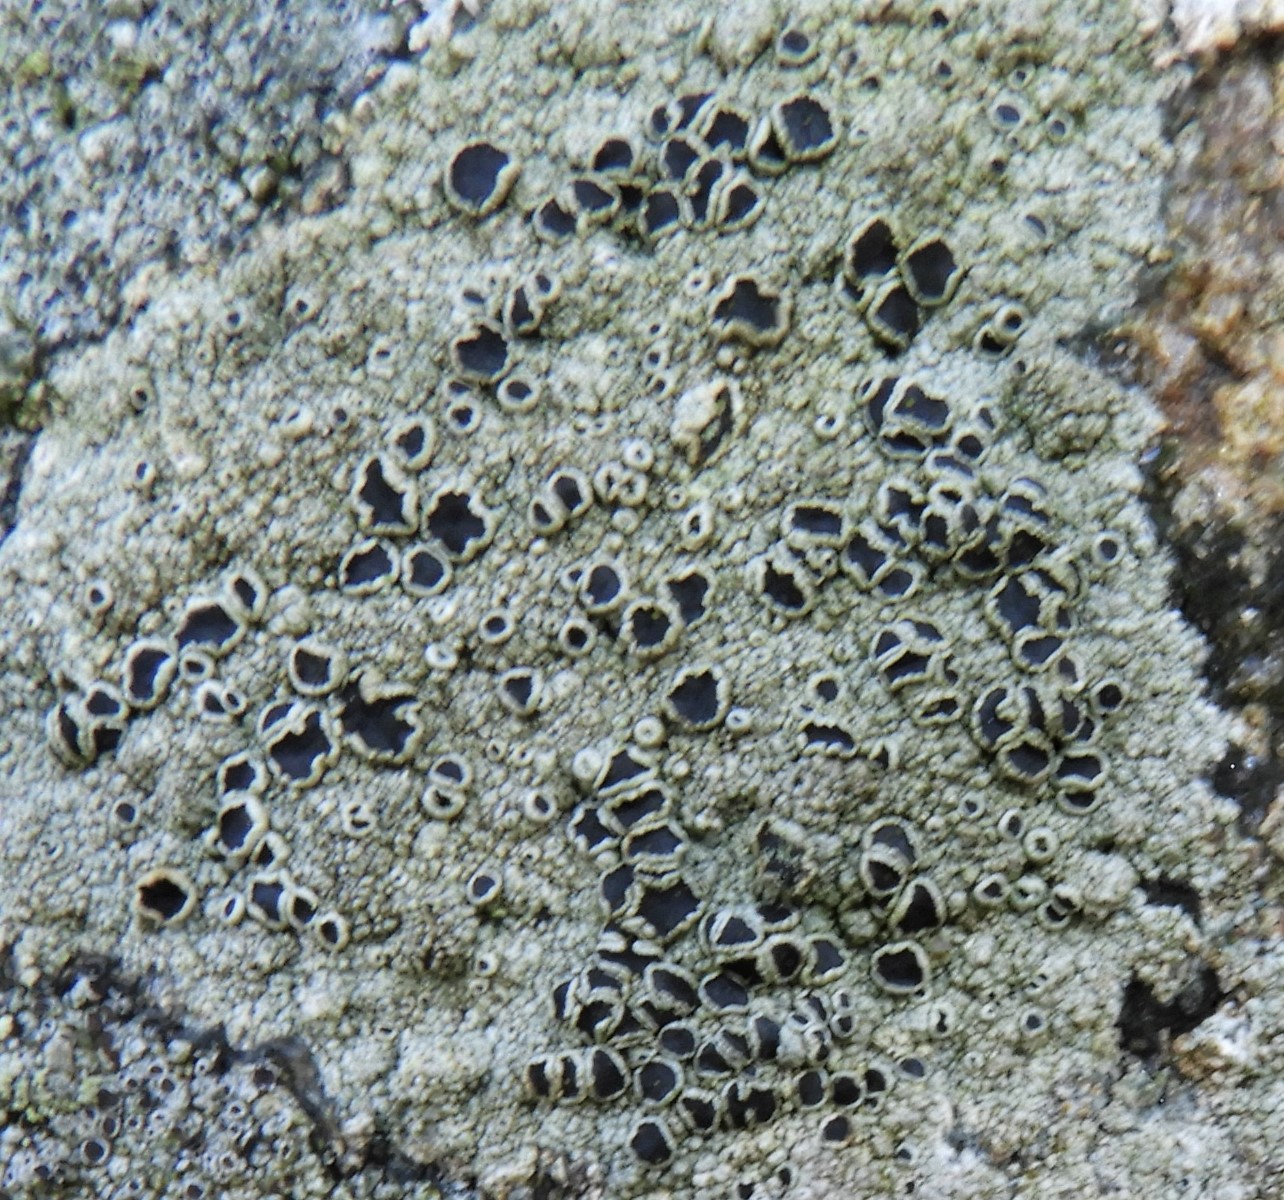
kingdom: Fungi
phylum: Ascomycota
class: Lecanoromycetes
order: Lecanorales
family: Tephromelataceae
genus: Tephromela
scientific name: Tephromela atra
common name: sortfrugtet kantskivelav
